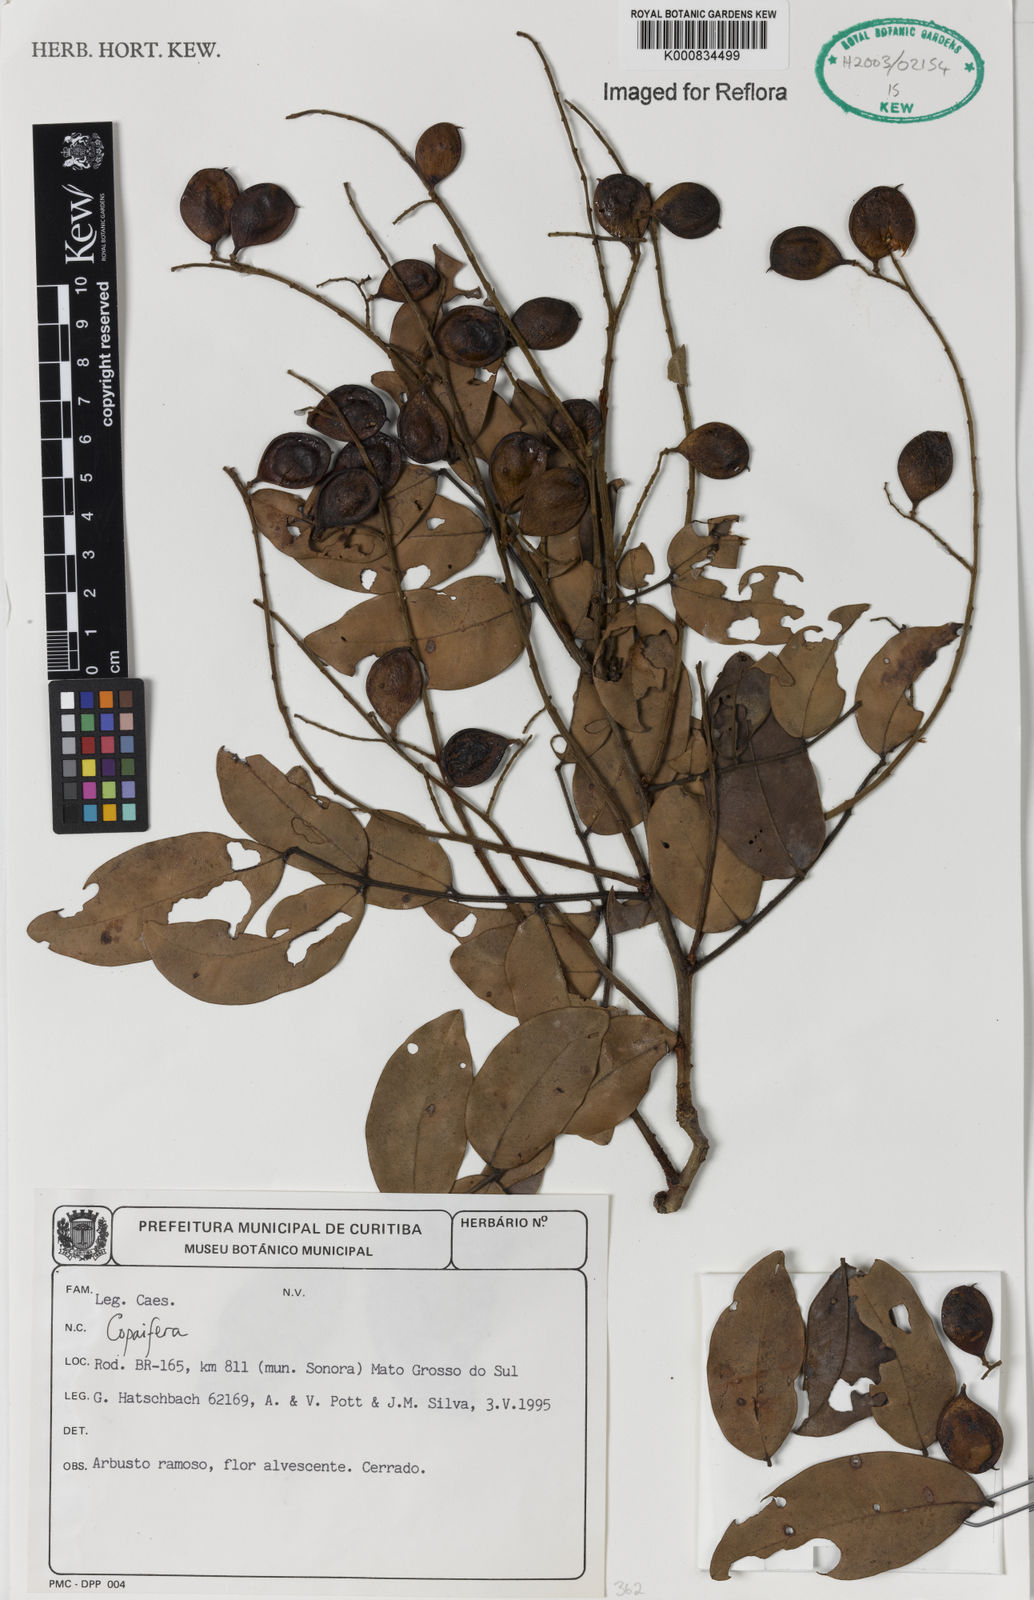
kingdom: Plantae
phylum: Tracheophyta
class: Magnoliopsida
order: Fabales
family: Fabaceae
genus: Copaifera
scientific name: Copaifera
